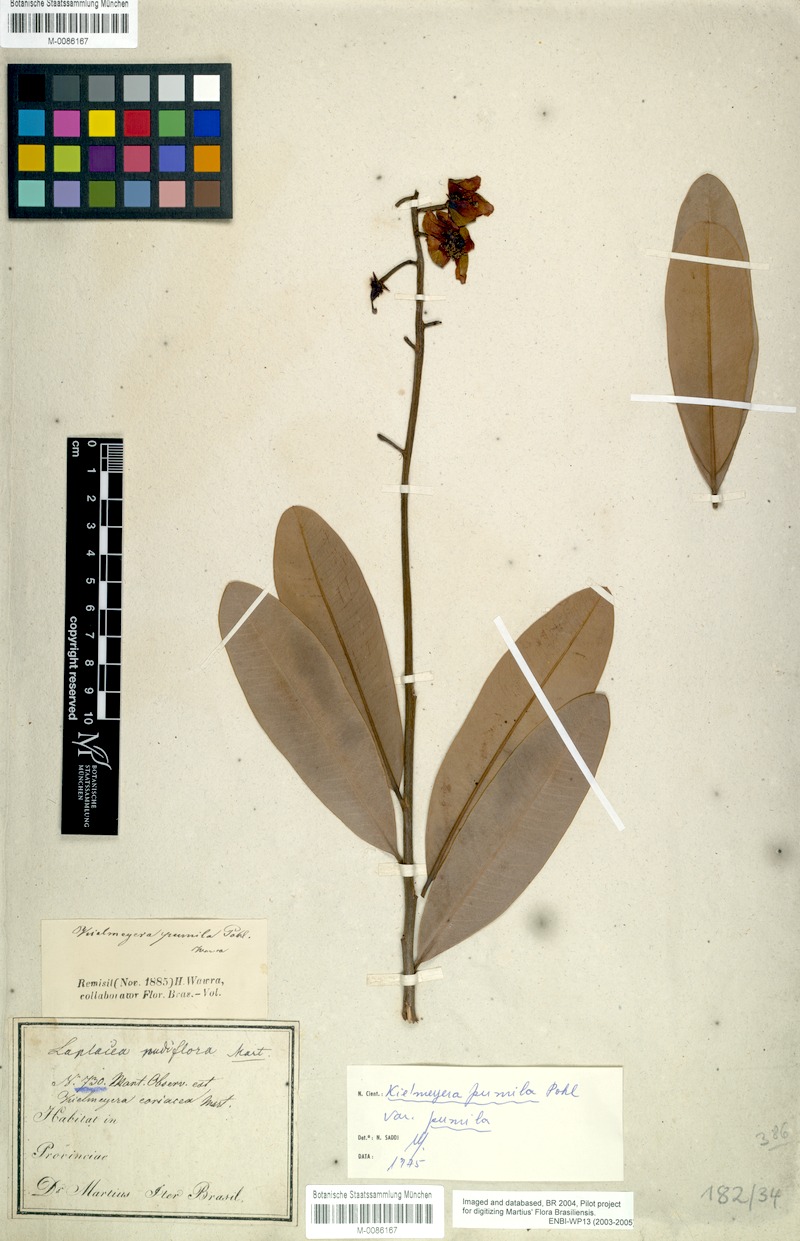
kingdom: Plantae
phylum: Tracheophyta
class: Magnoliopsida
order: Malpighiales
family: Calophyllaceae
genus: Kielmeyera
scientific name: Kielmeyera pumila
